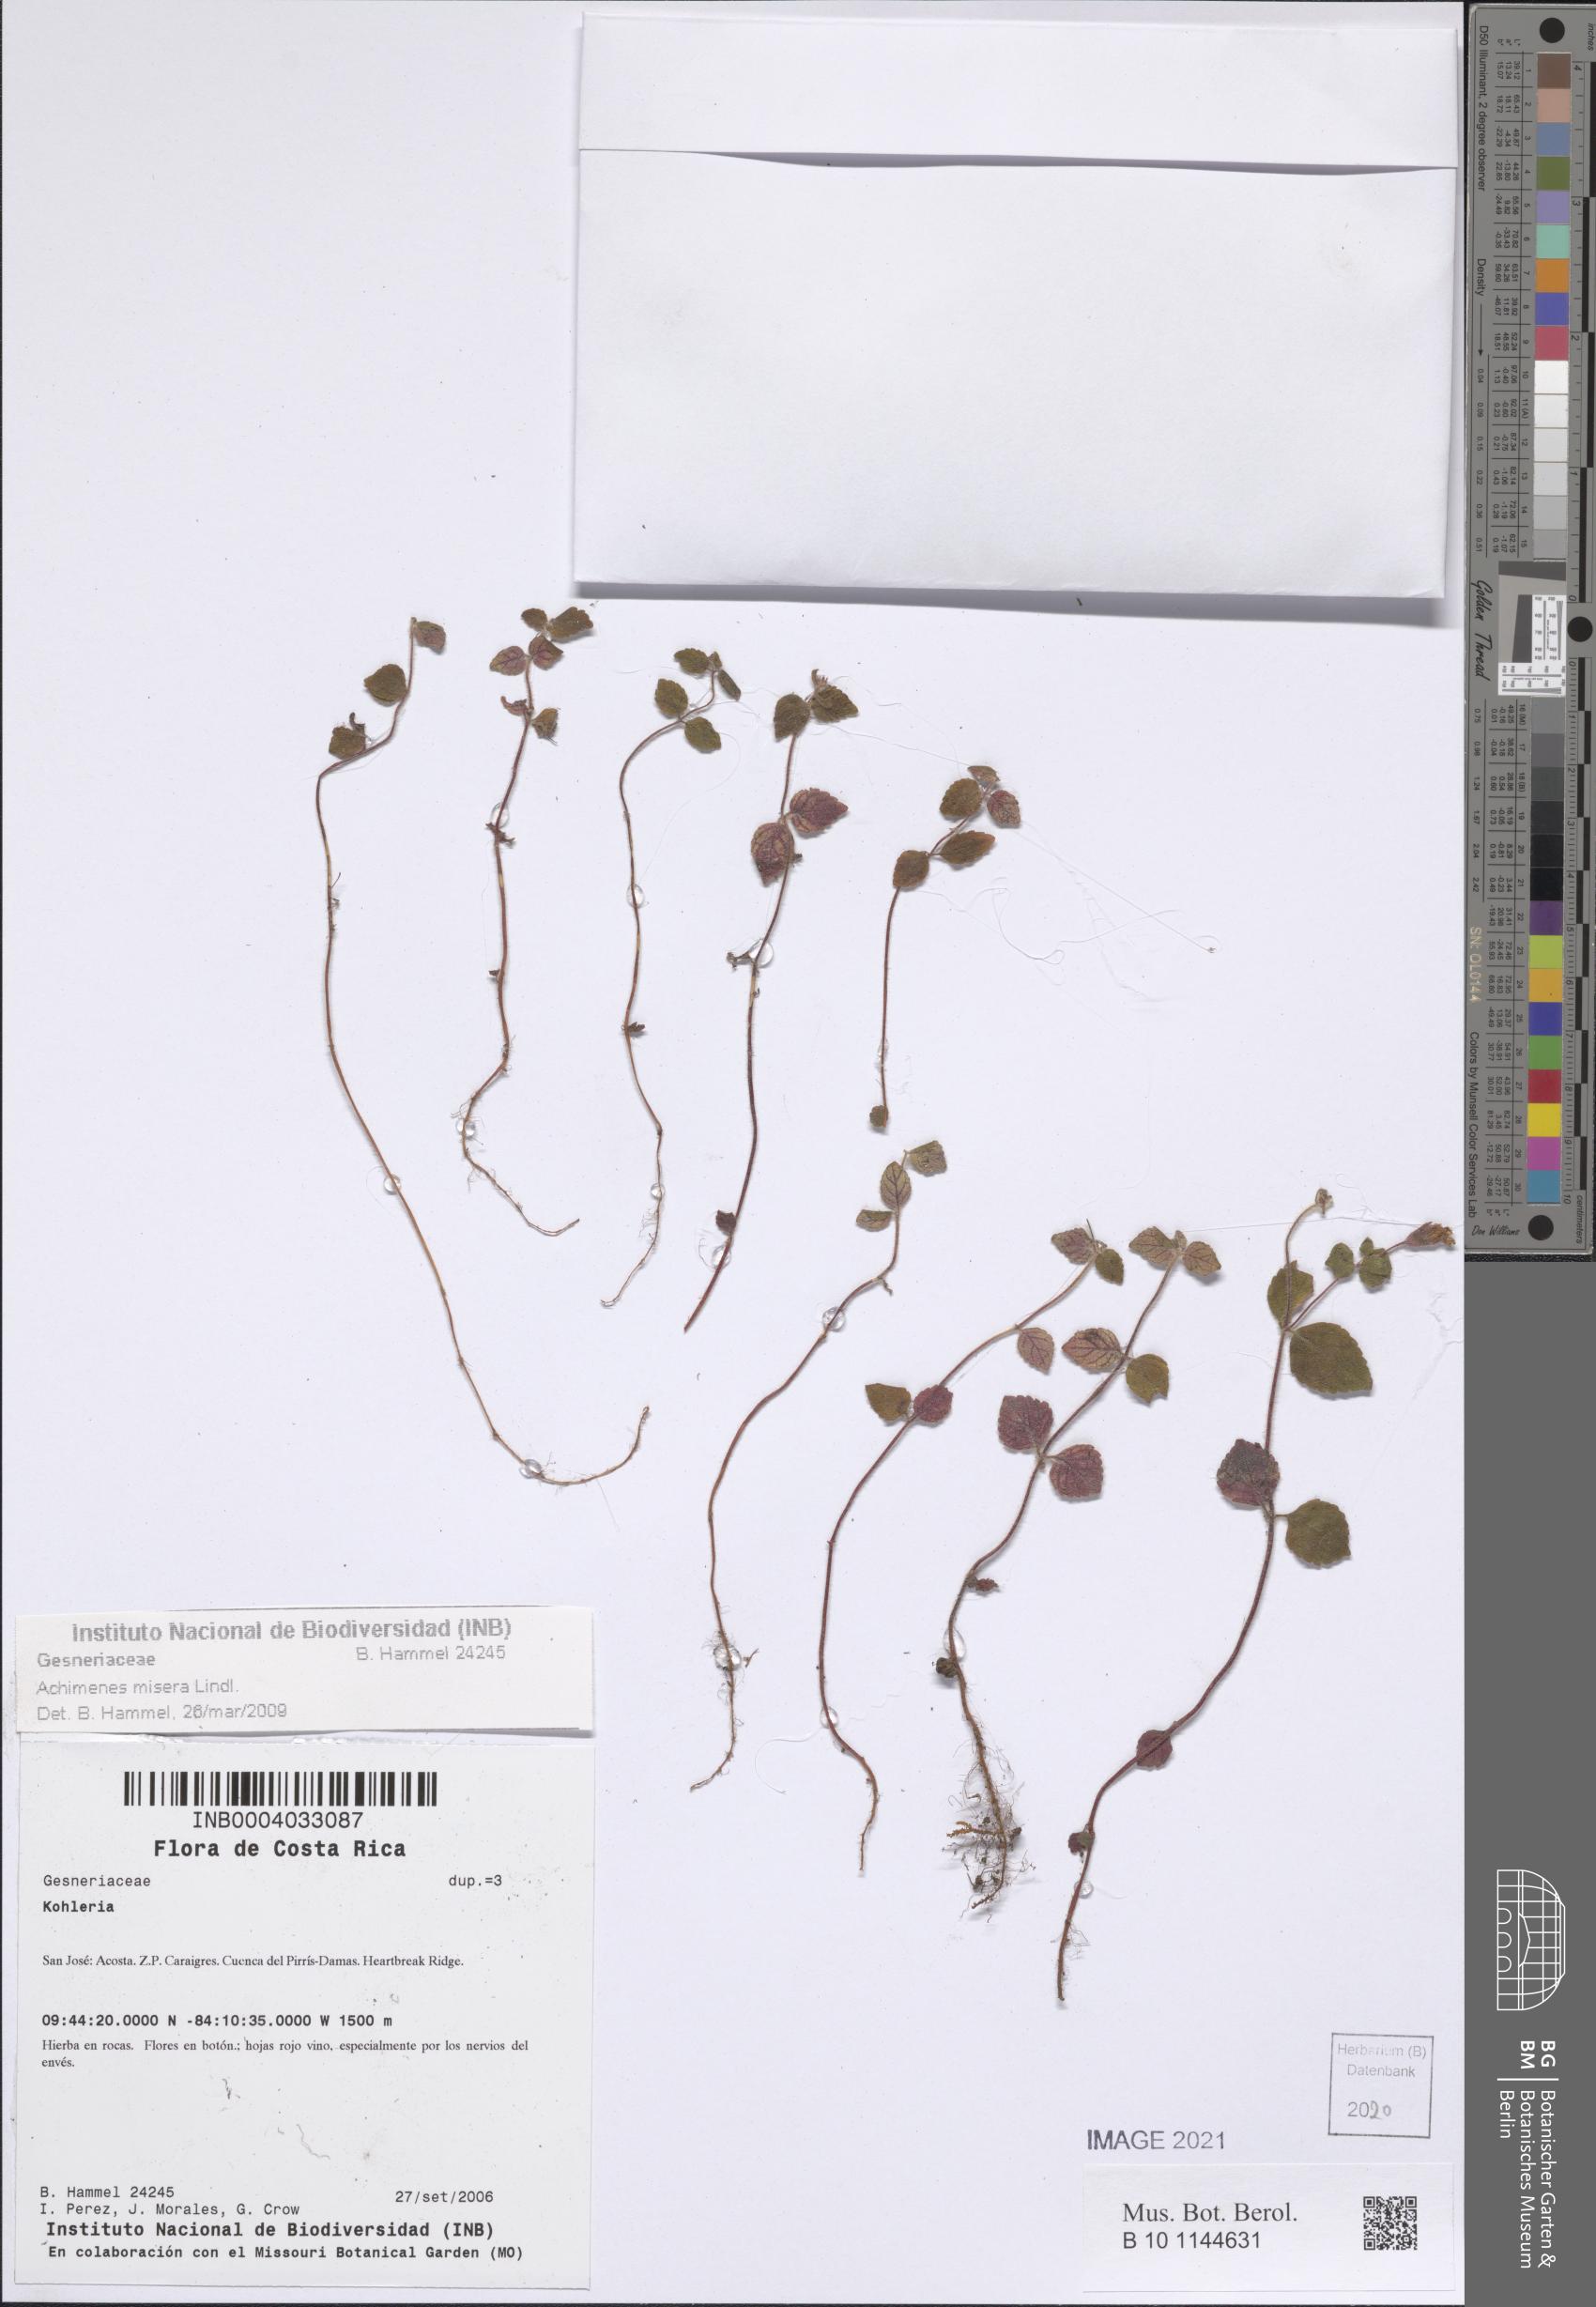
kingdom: Plantae
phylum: Tracheophyta
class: Magnoliopsida
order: Lamiales
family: Gesneriaceae
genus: Achimenes
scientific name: Achimenes misera
